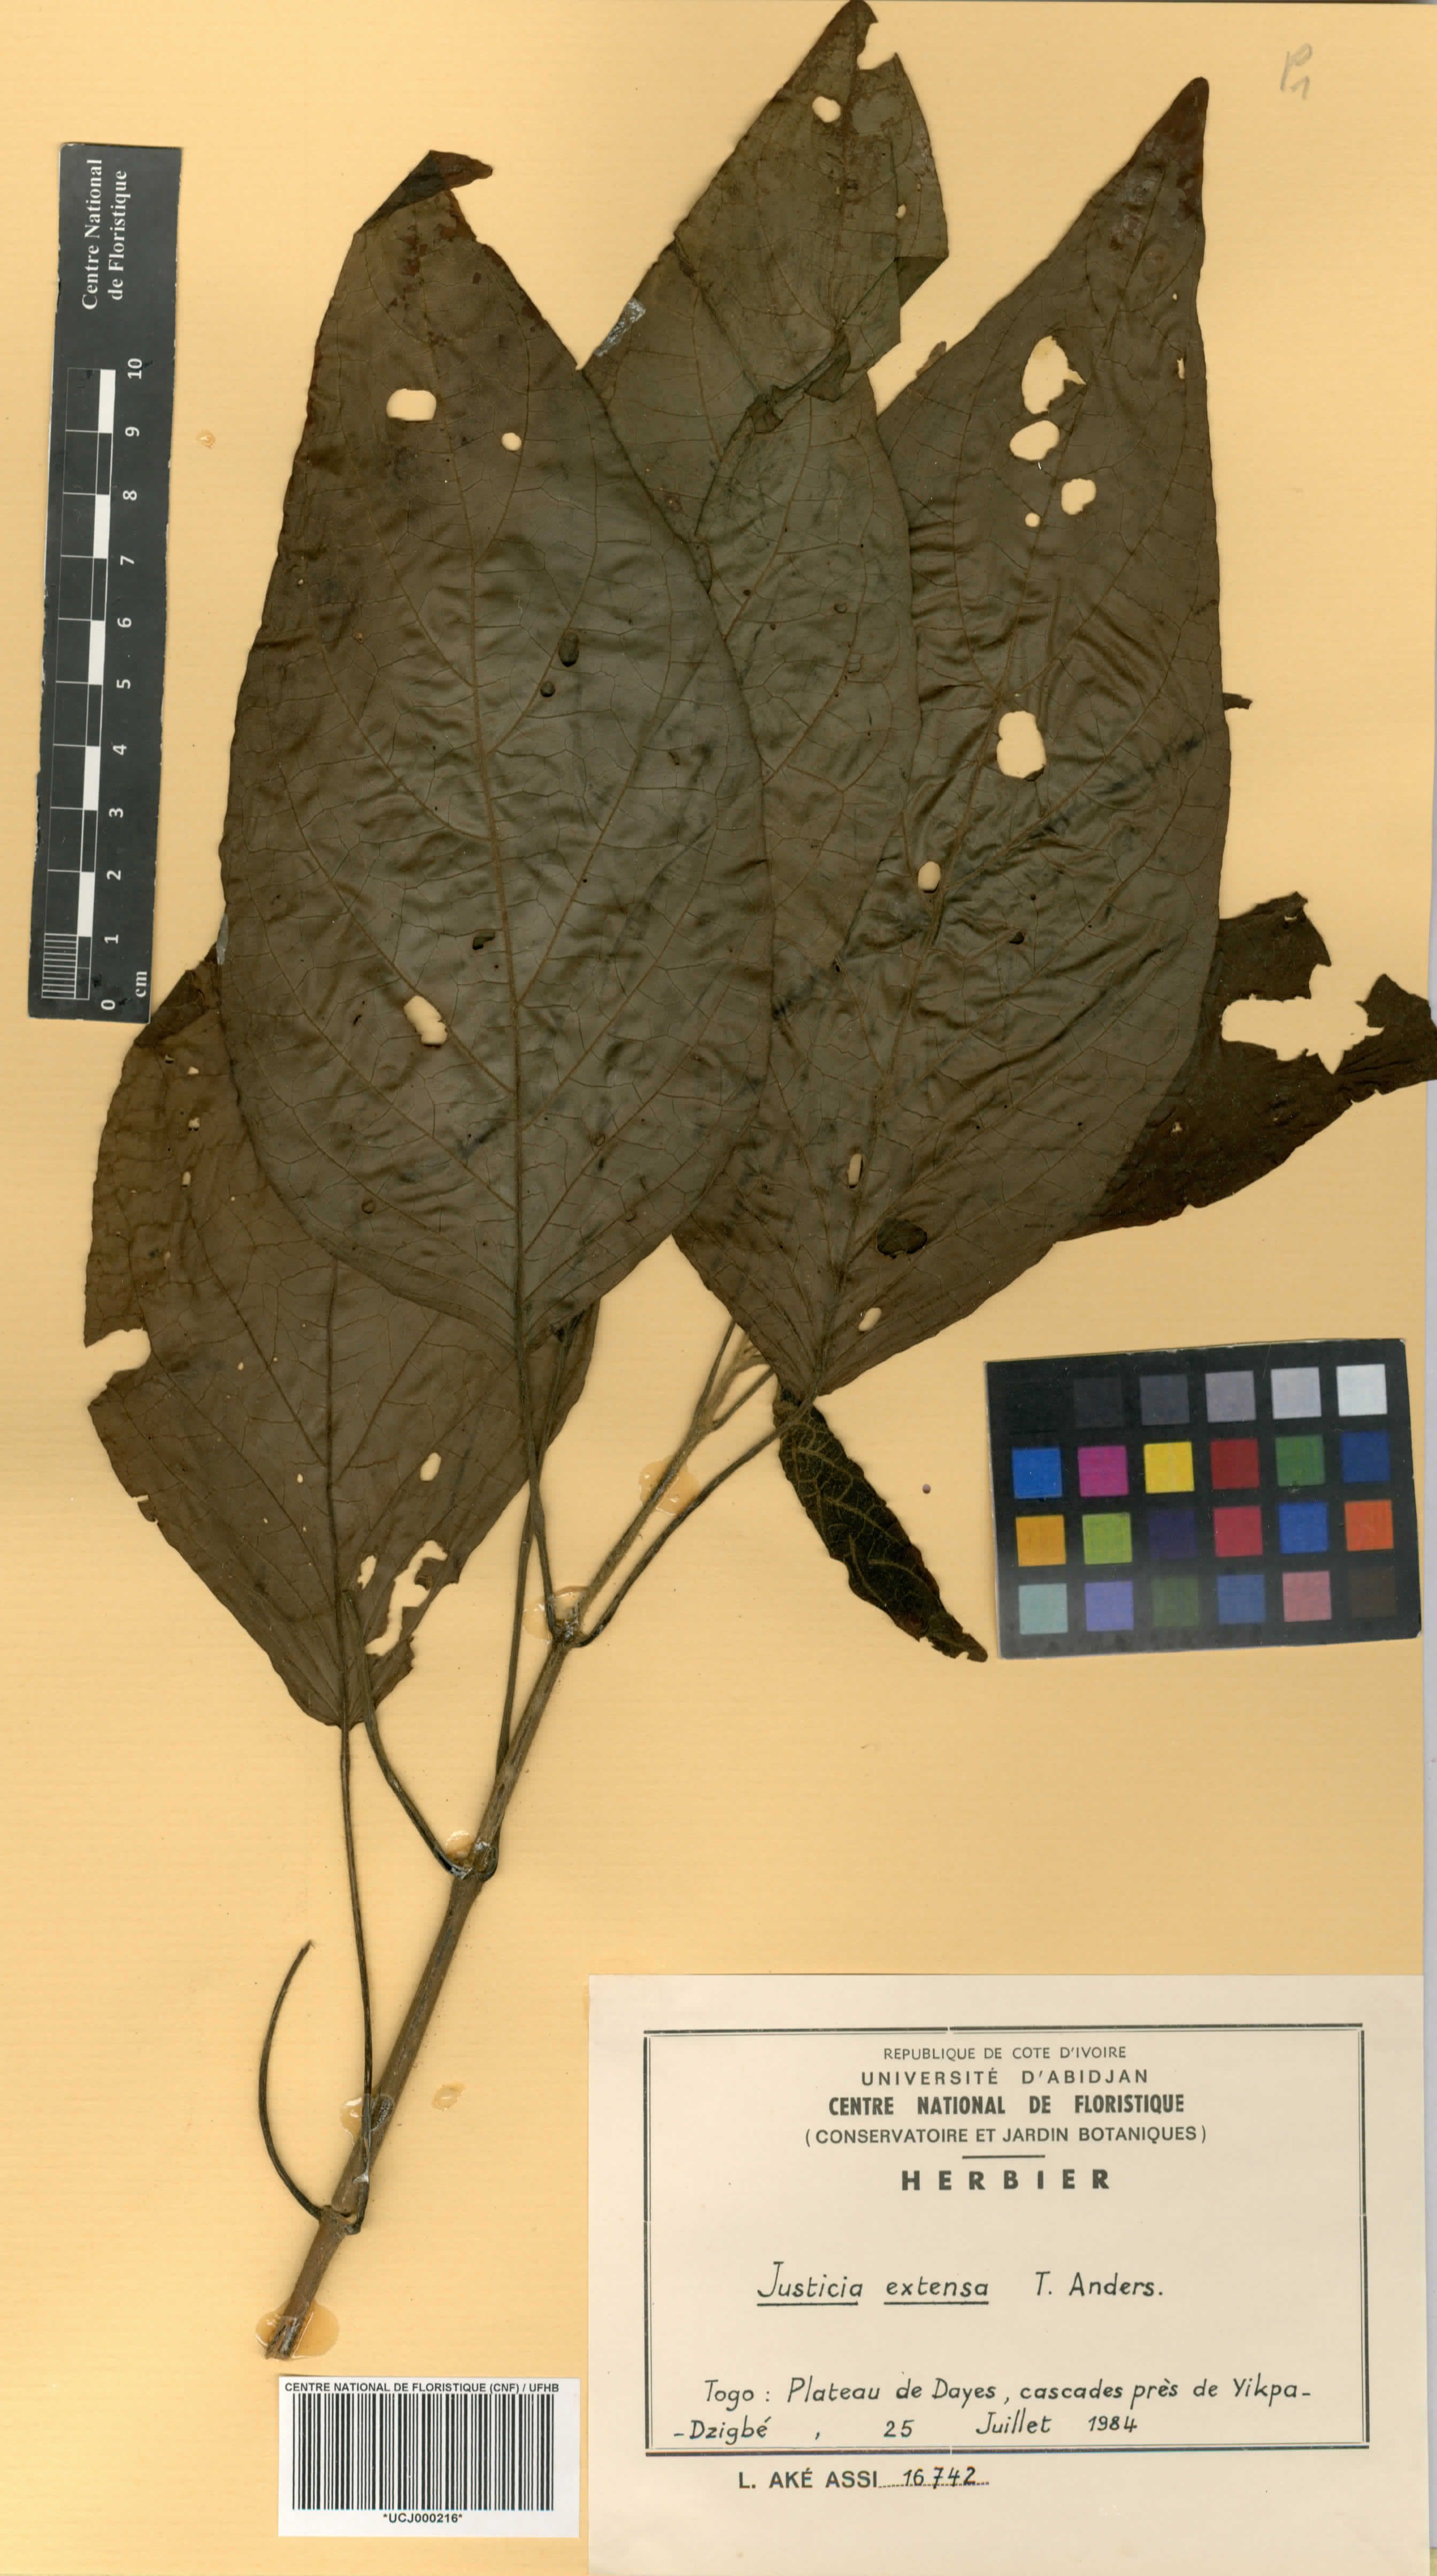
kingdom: Plantae
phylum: Tracheophyta
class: Magnoliopsida
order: Lamiales
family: Acanthaceae
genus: Justicia
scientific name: Justicia extensa
